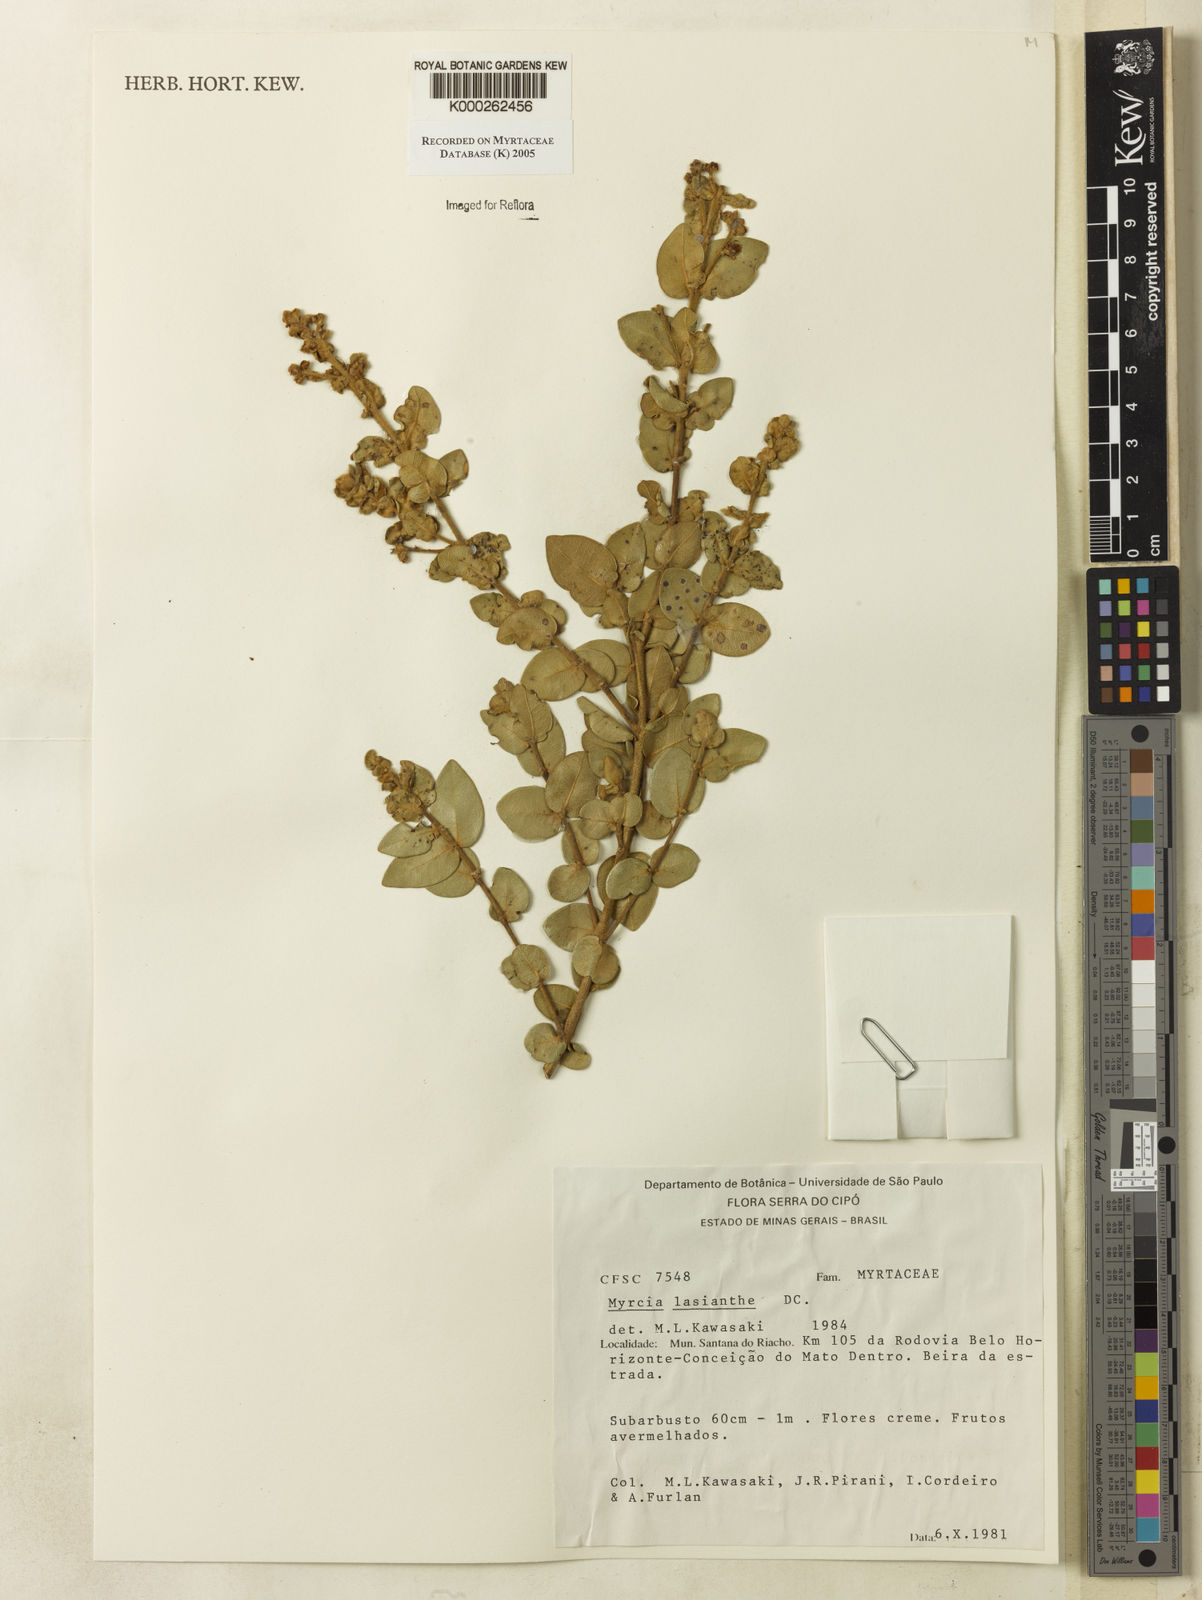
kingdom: Plantae
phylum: Tracheophyta
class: Magnoliopsida
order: Myrtales
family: Myrtaceae
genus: Myrcia
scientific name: Myrcia lasiantha
